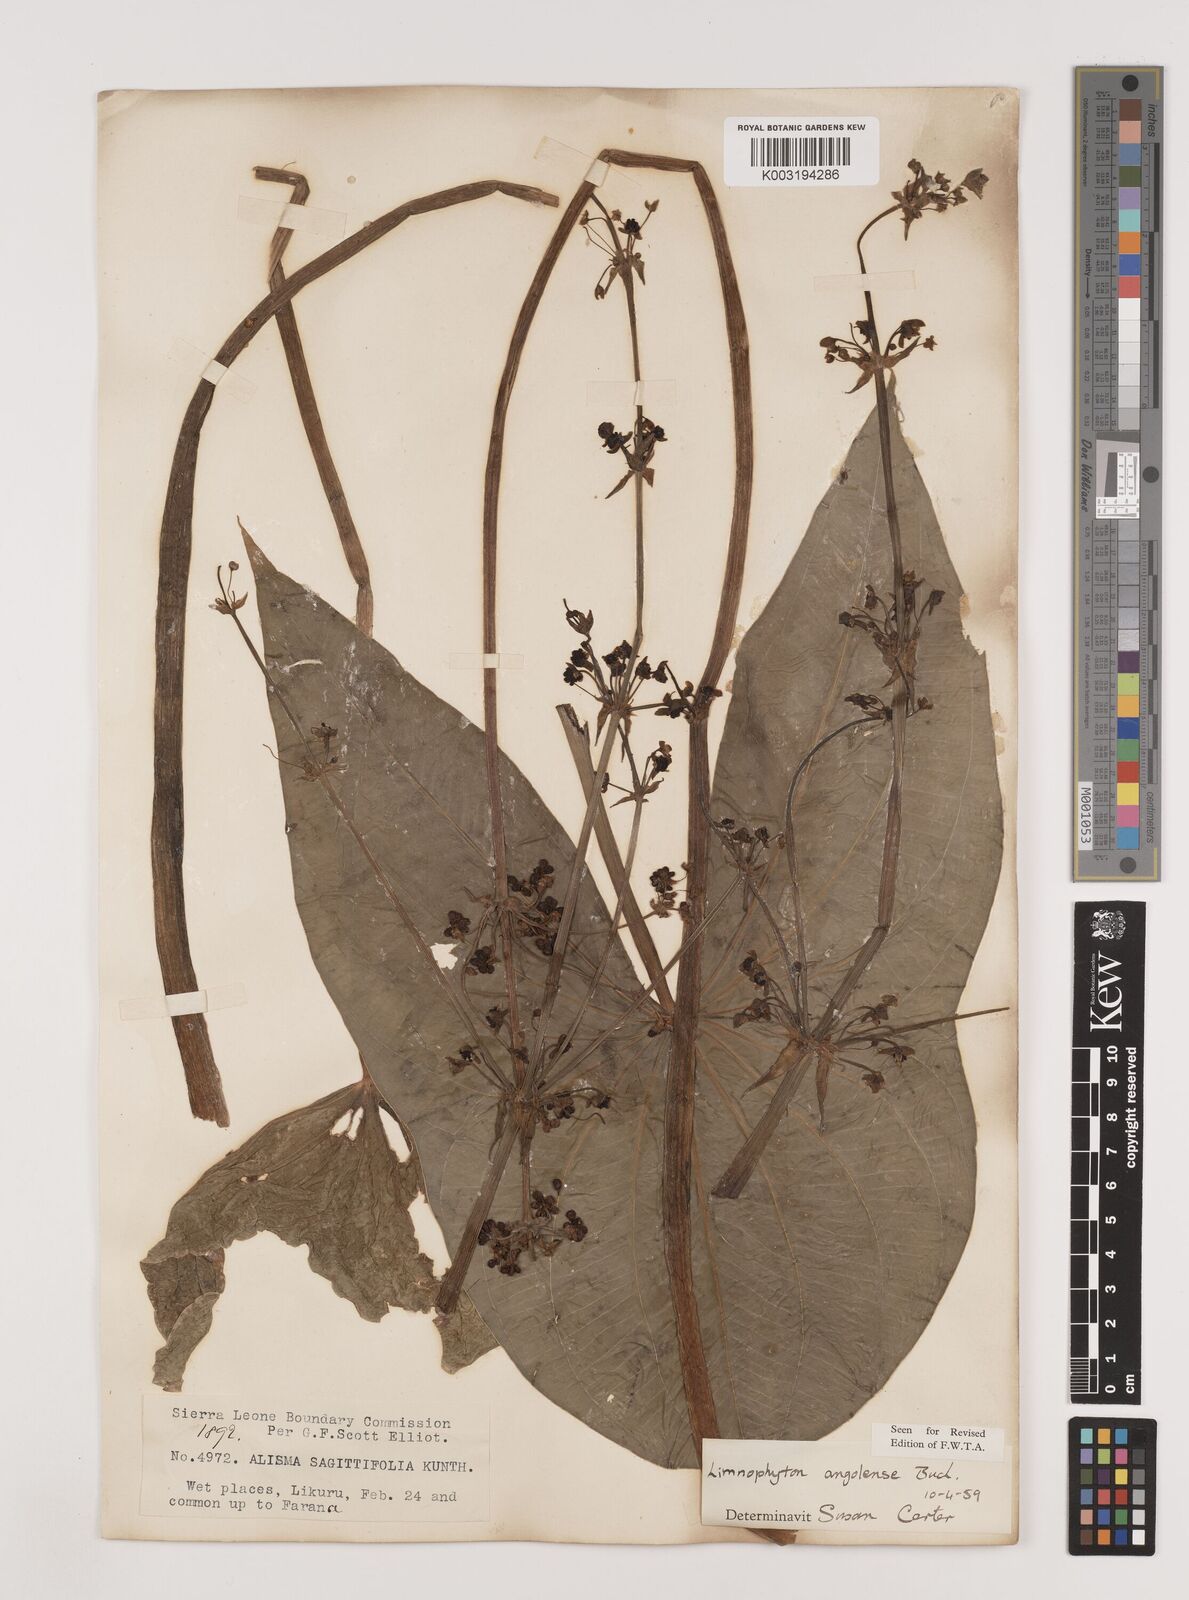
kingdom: Plantae
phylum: Tracheophyta
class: Liliopsida
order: Alismatales
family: Alismataceae
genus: Limnophyton
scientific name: Limnophyton angolense
